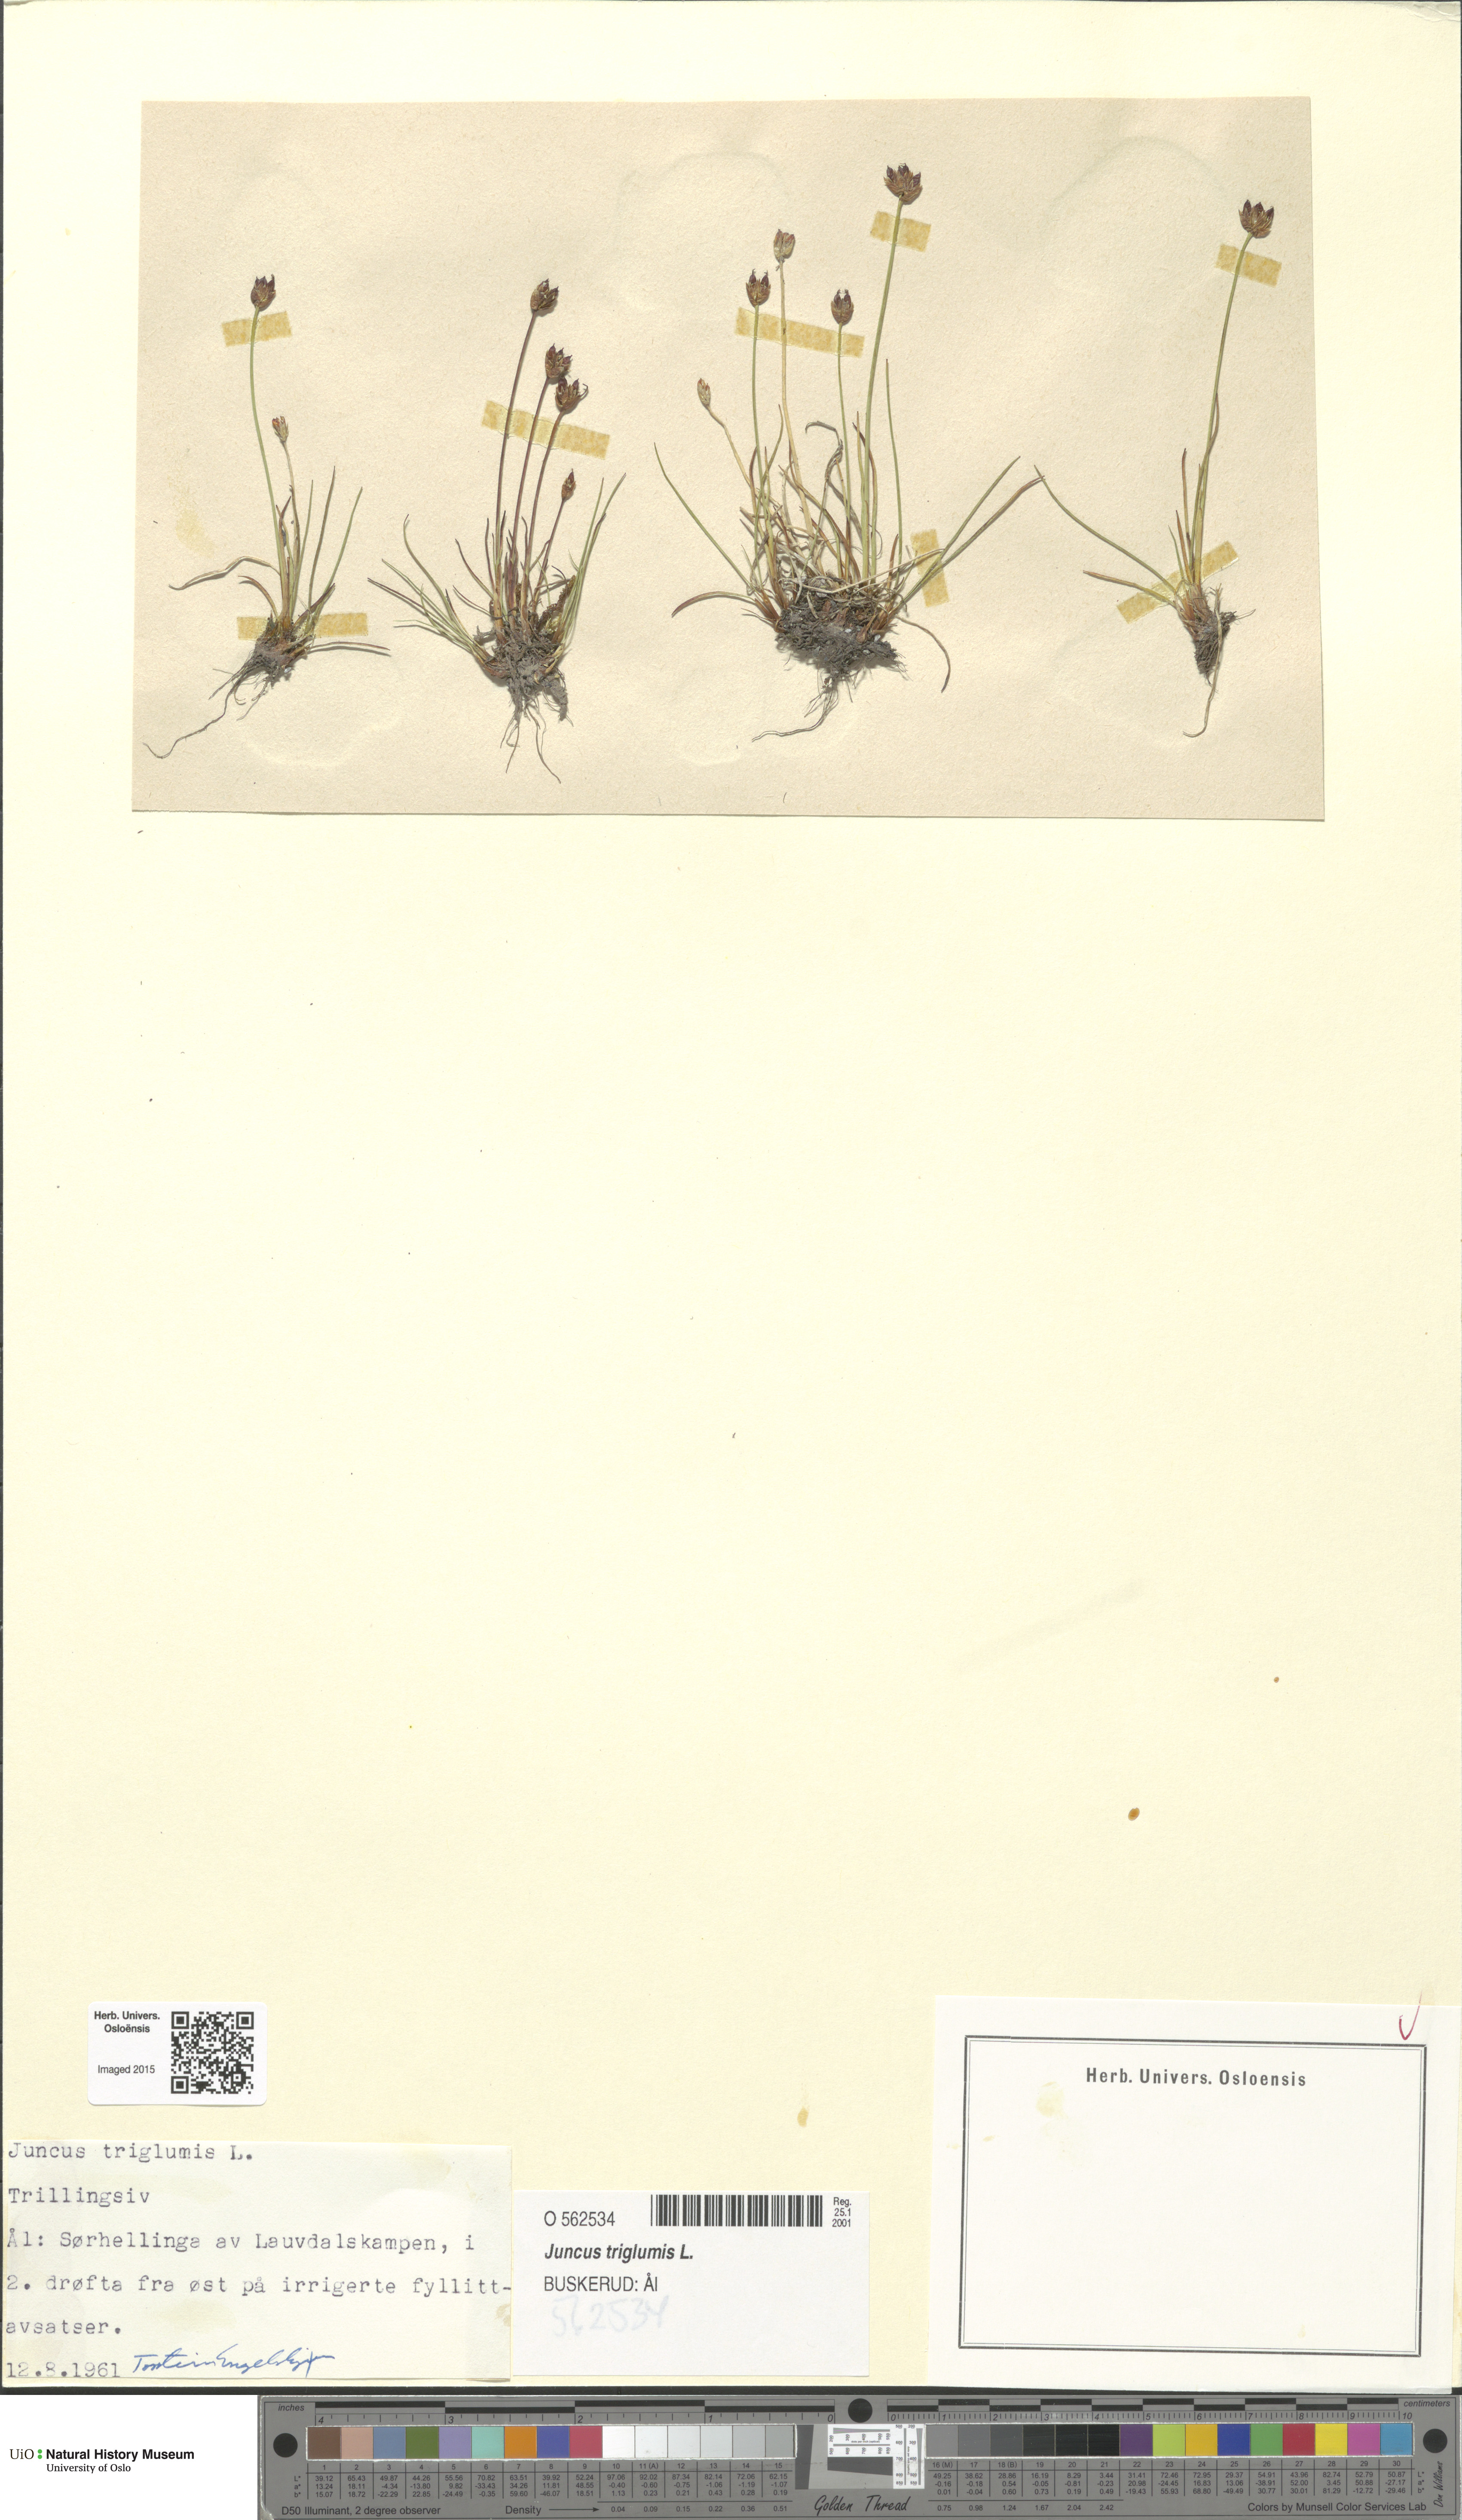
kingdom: Plantae
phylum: Tracheophyta
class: Liliopsida
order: Poales
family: Juncaceae
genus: Juncus
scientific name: Juncus triglumis
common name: Three-flowered rush
